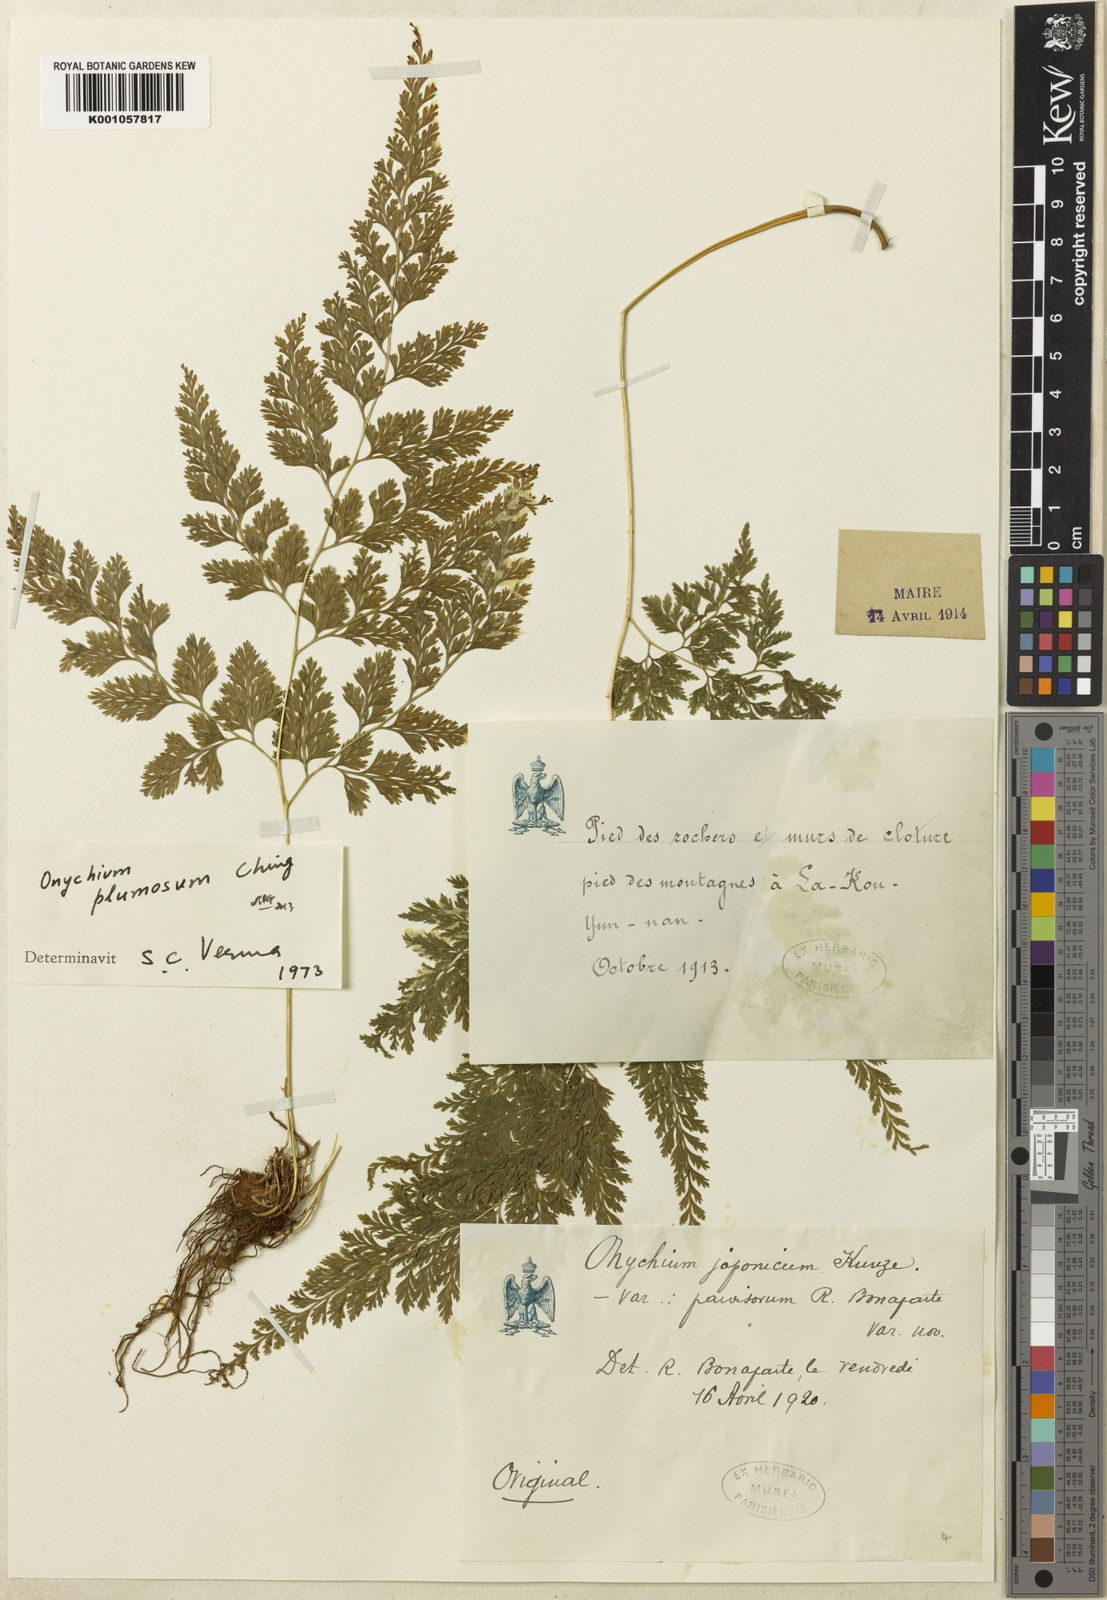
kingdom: Plantae
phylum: Tracheophyta
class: Polypodiopsida
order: Polypodiales
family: Pteridaceae
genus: Onychium
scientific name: Onychium japonicum
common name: Carrot fern
